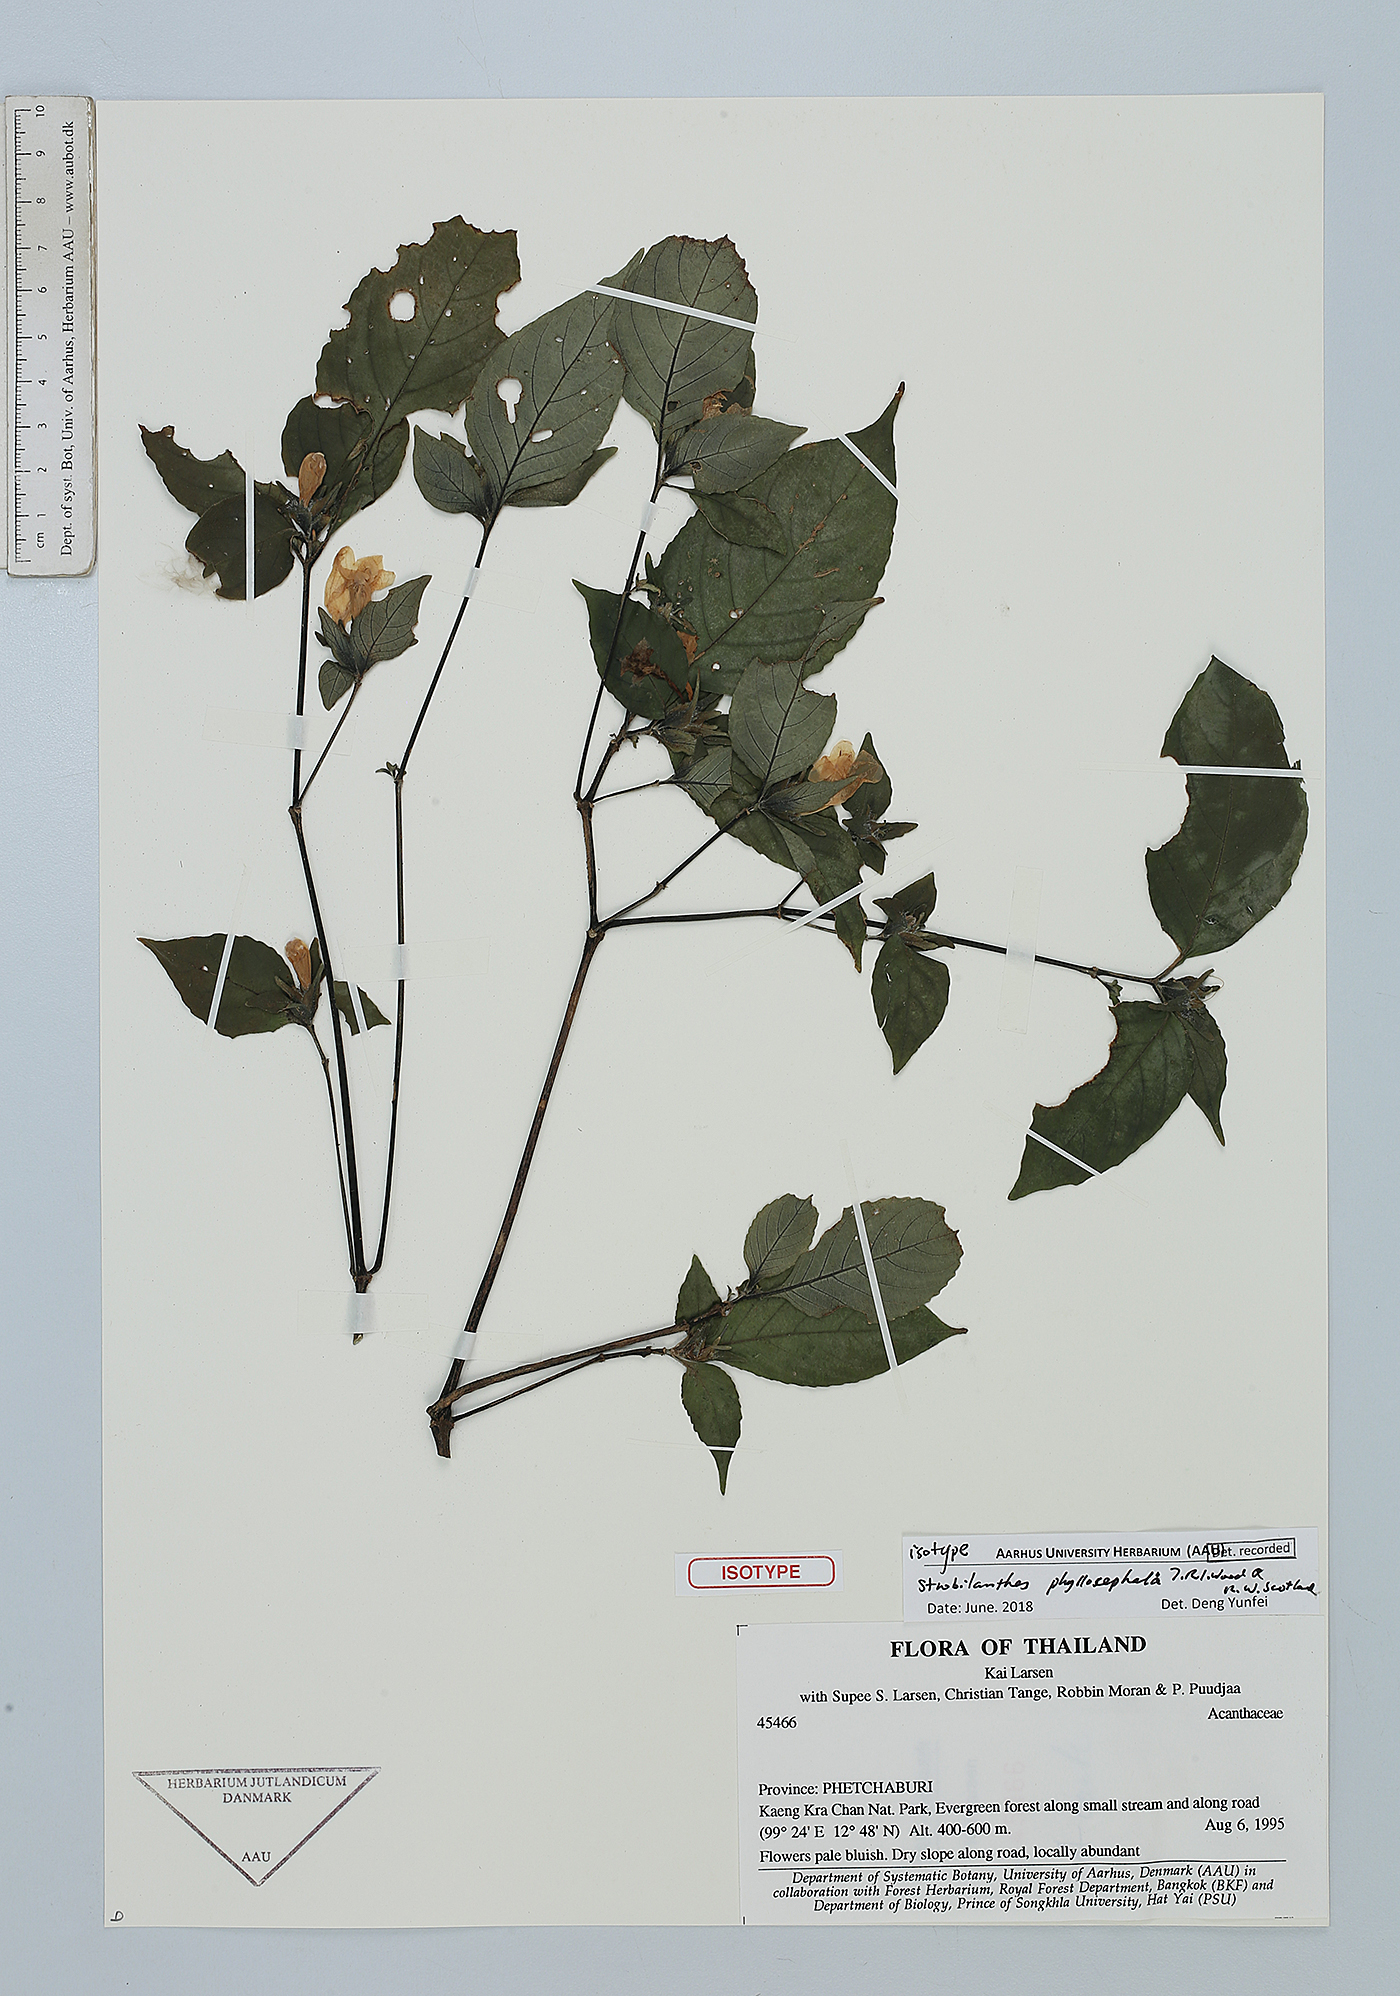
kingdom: Plantae
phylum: Tracheophyta
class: Magnoliopsida
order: Lamiales
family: Acanthaceae
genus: Strobilanthes
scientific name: Strobilanthes phyllocephala
